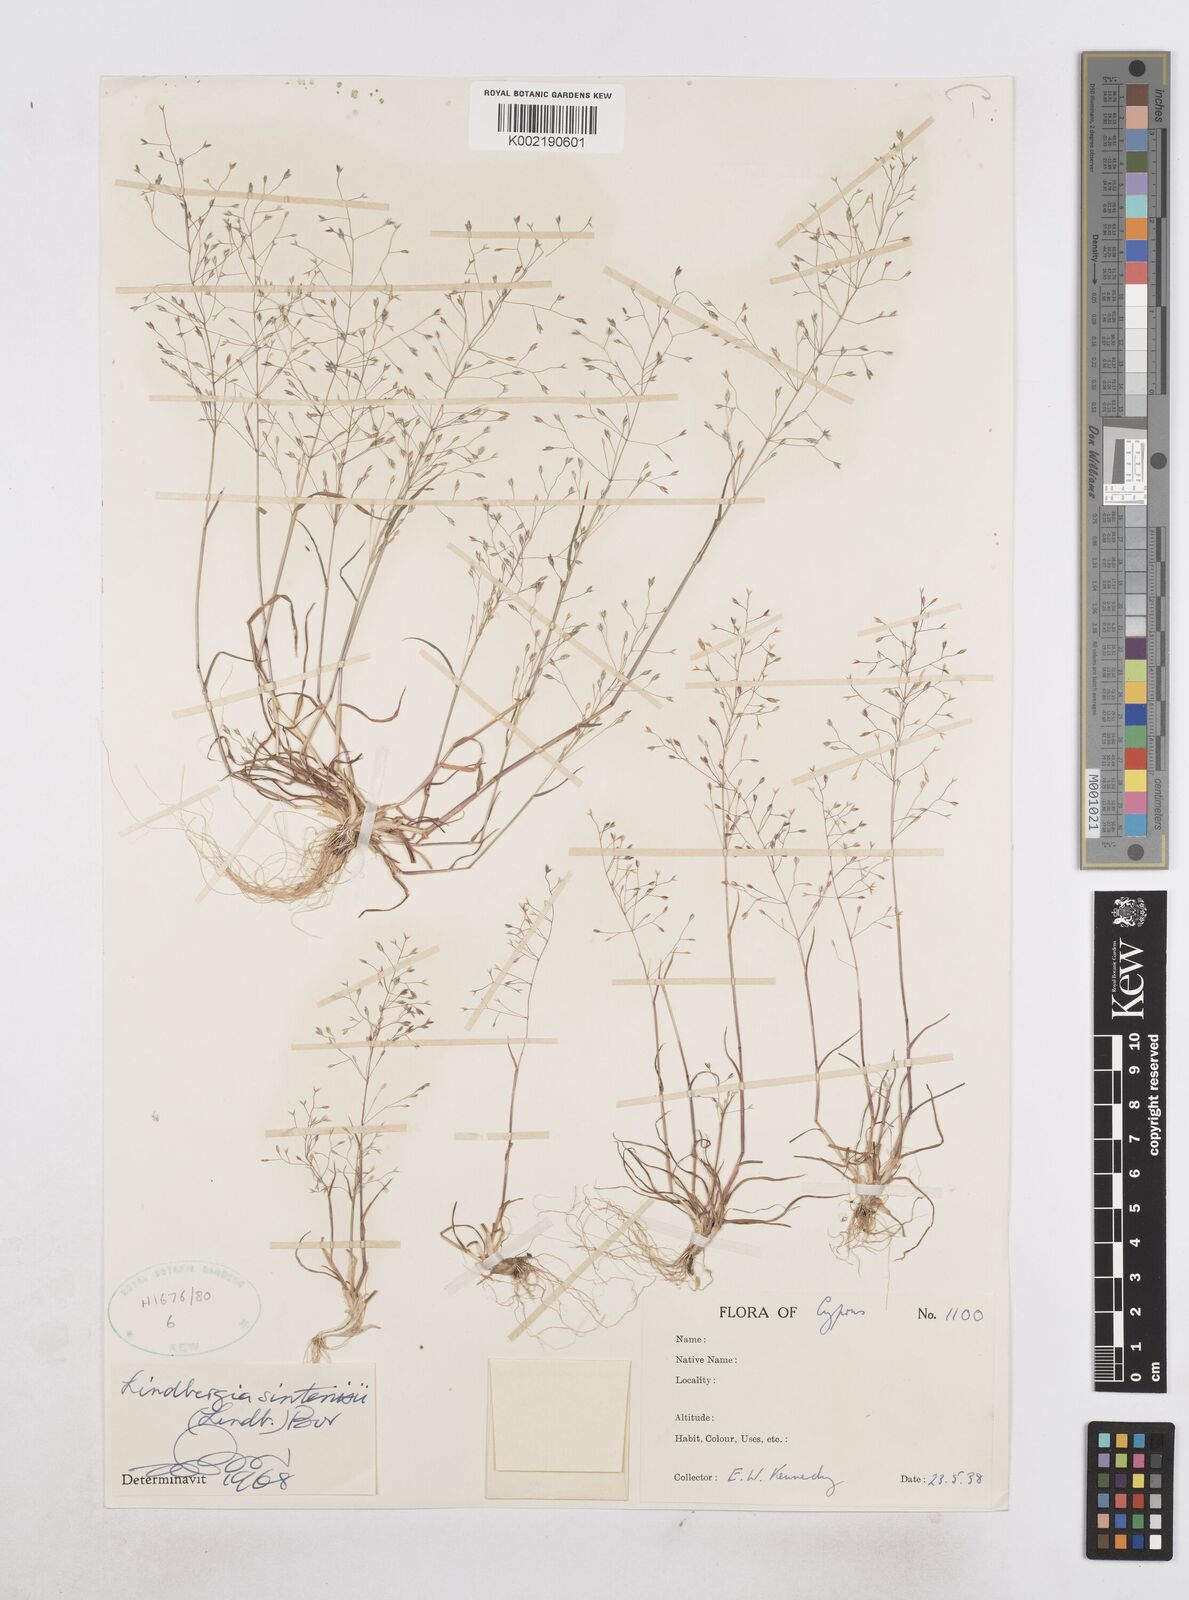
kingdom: Plantae
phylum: Tracheophyta
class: Liliopsida
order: Poales
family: Poaceae
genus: Poa
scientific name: Poa sintenisii
